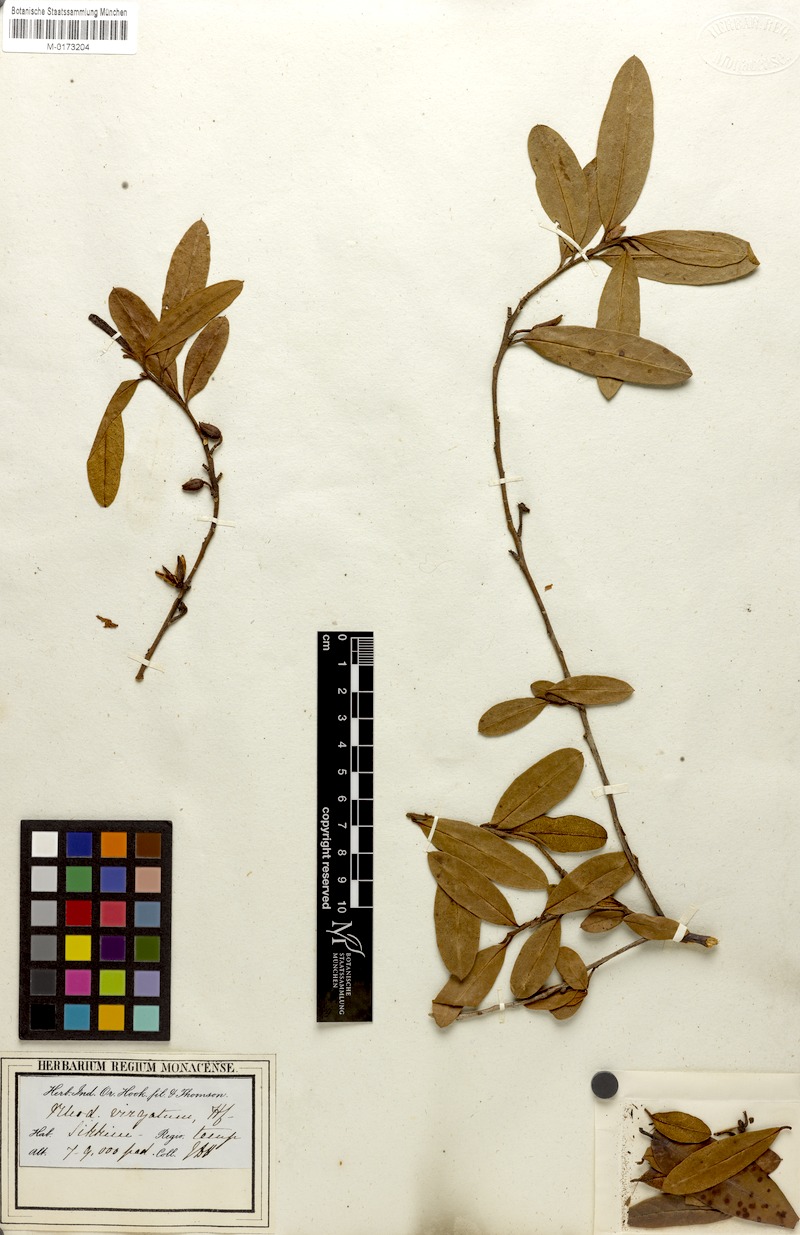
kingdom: Plantae
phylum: Tracheophyta
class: Magnoliopsida
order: Ericales
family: Ericaceae
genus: Rhododendron
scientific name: Rhododendron virgatum
